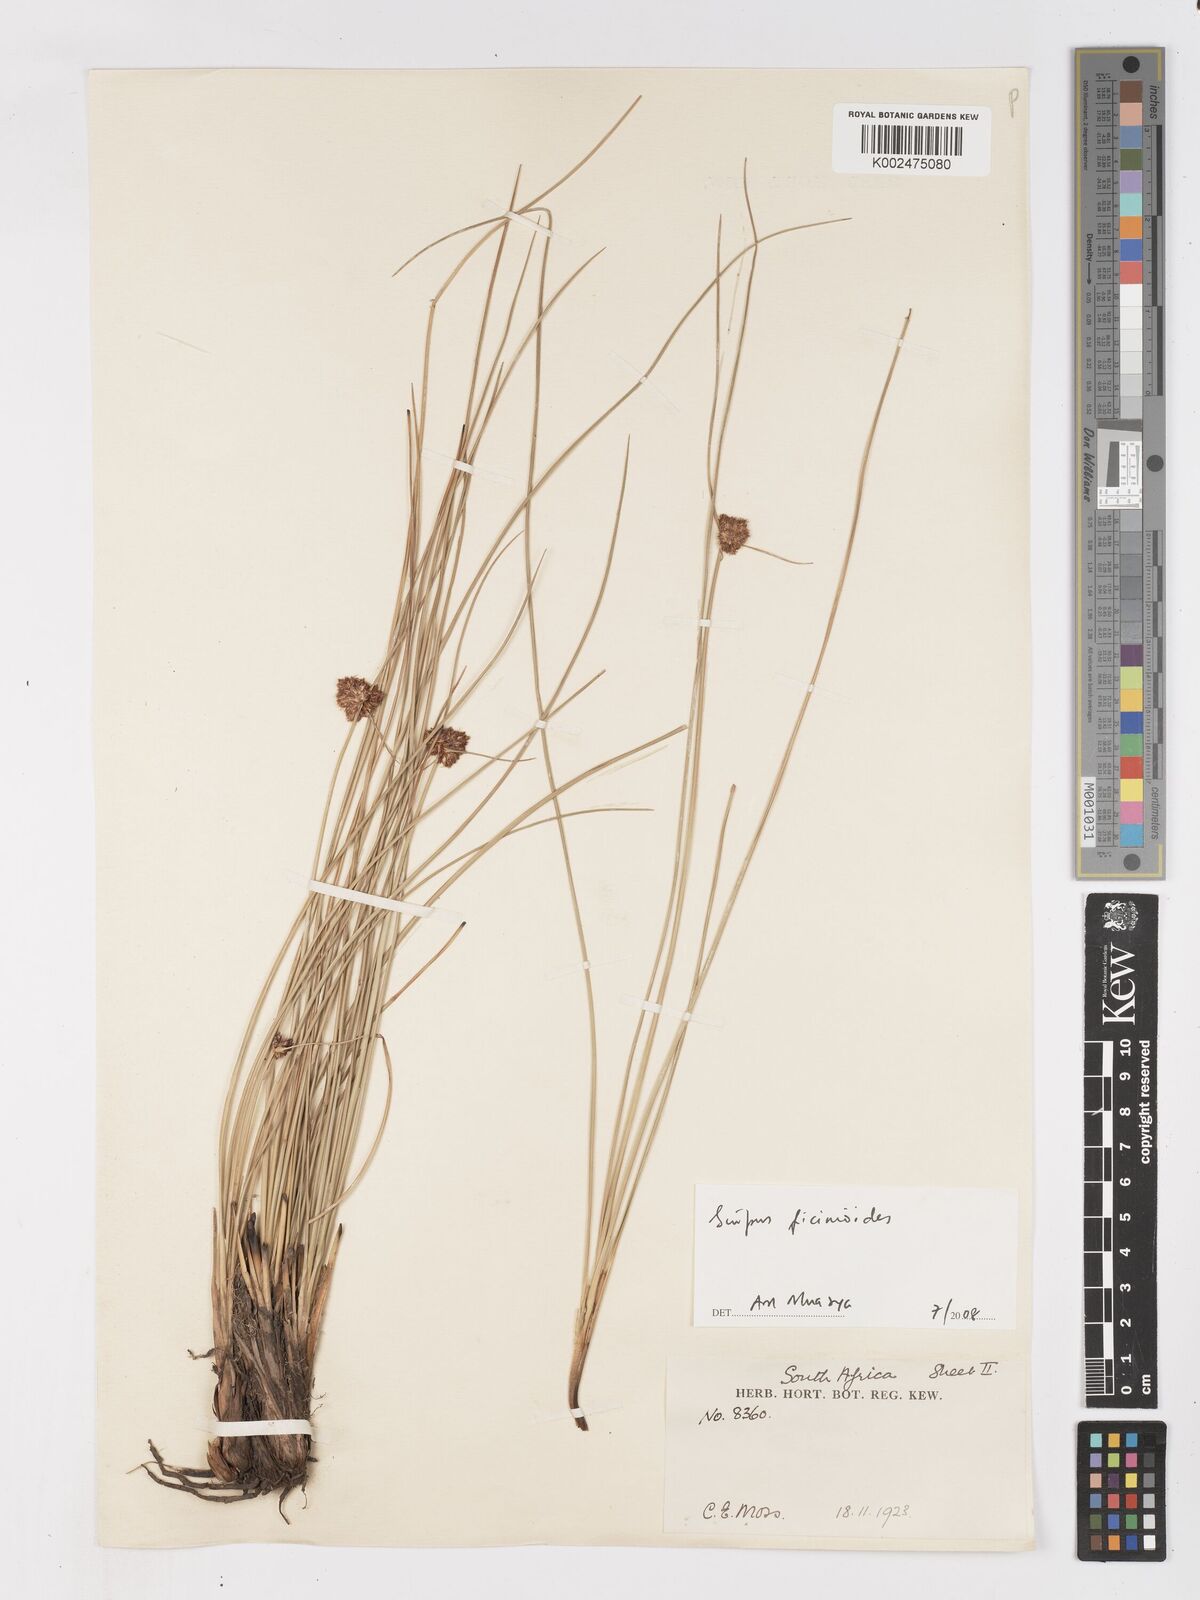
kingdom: Plantae
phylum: Tracheophyta
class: Liliopsida
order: Poales
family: Cyperaceae
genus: Ficinia
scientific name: Ficinia
